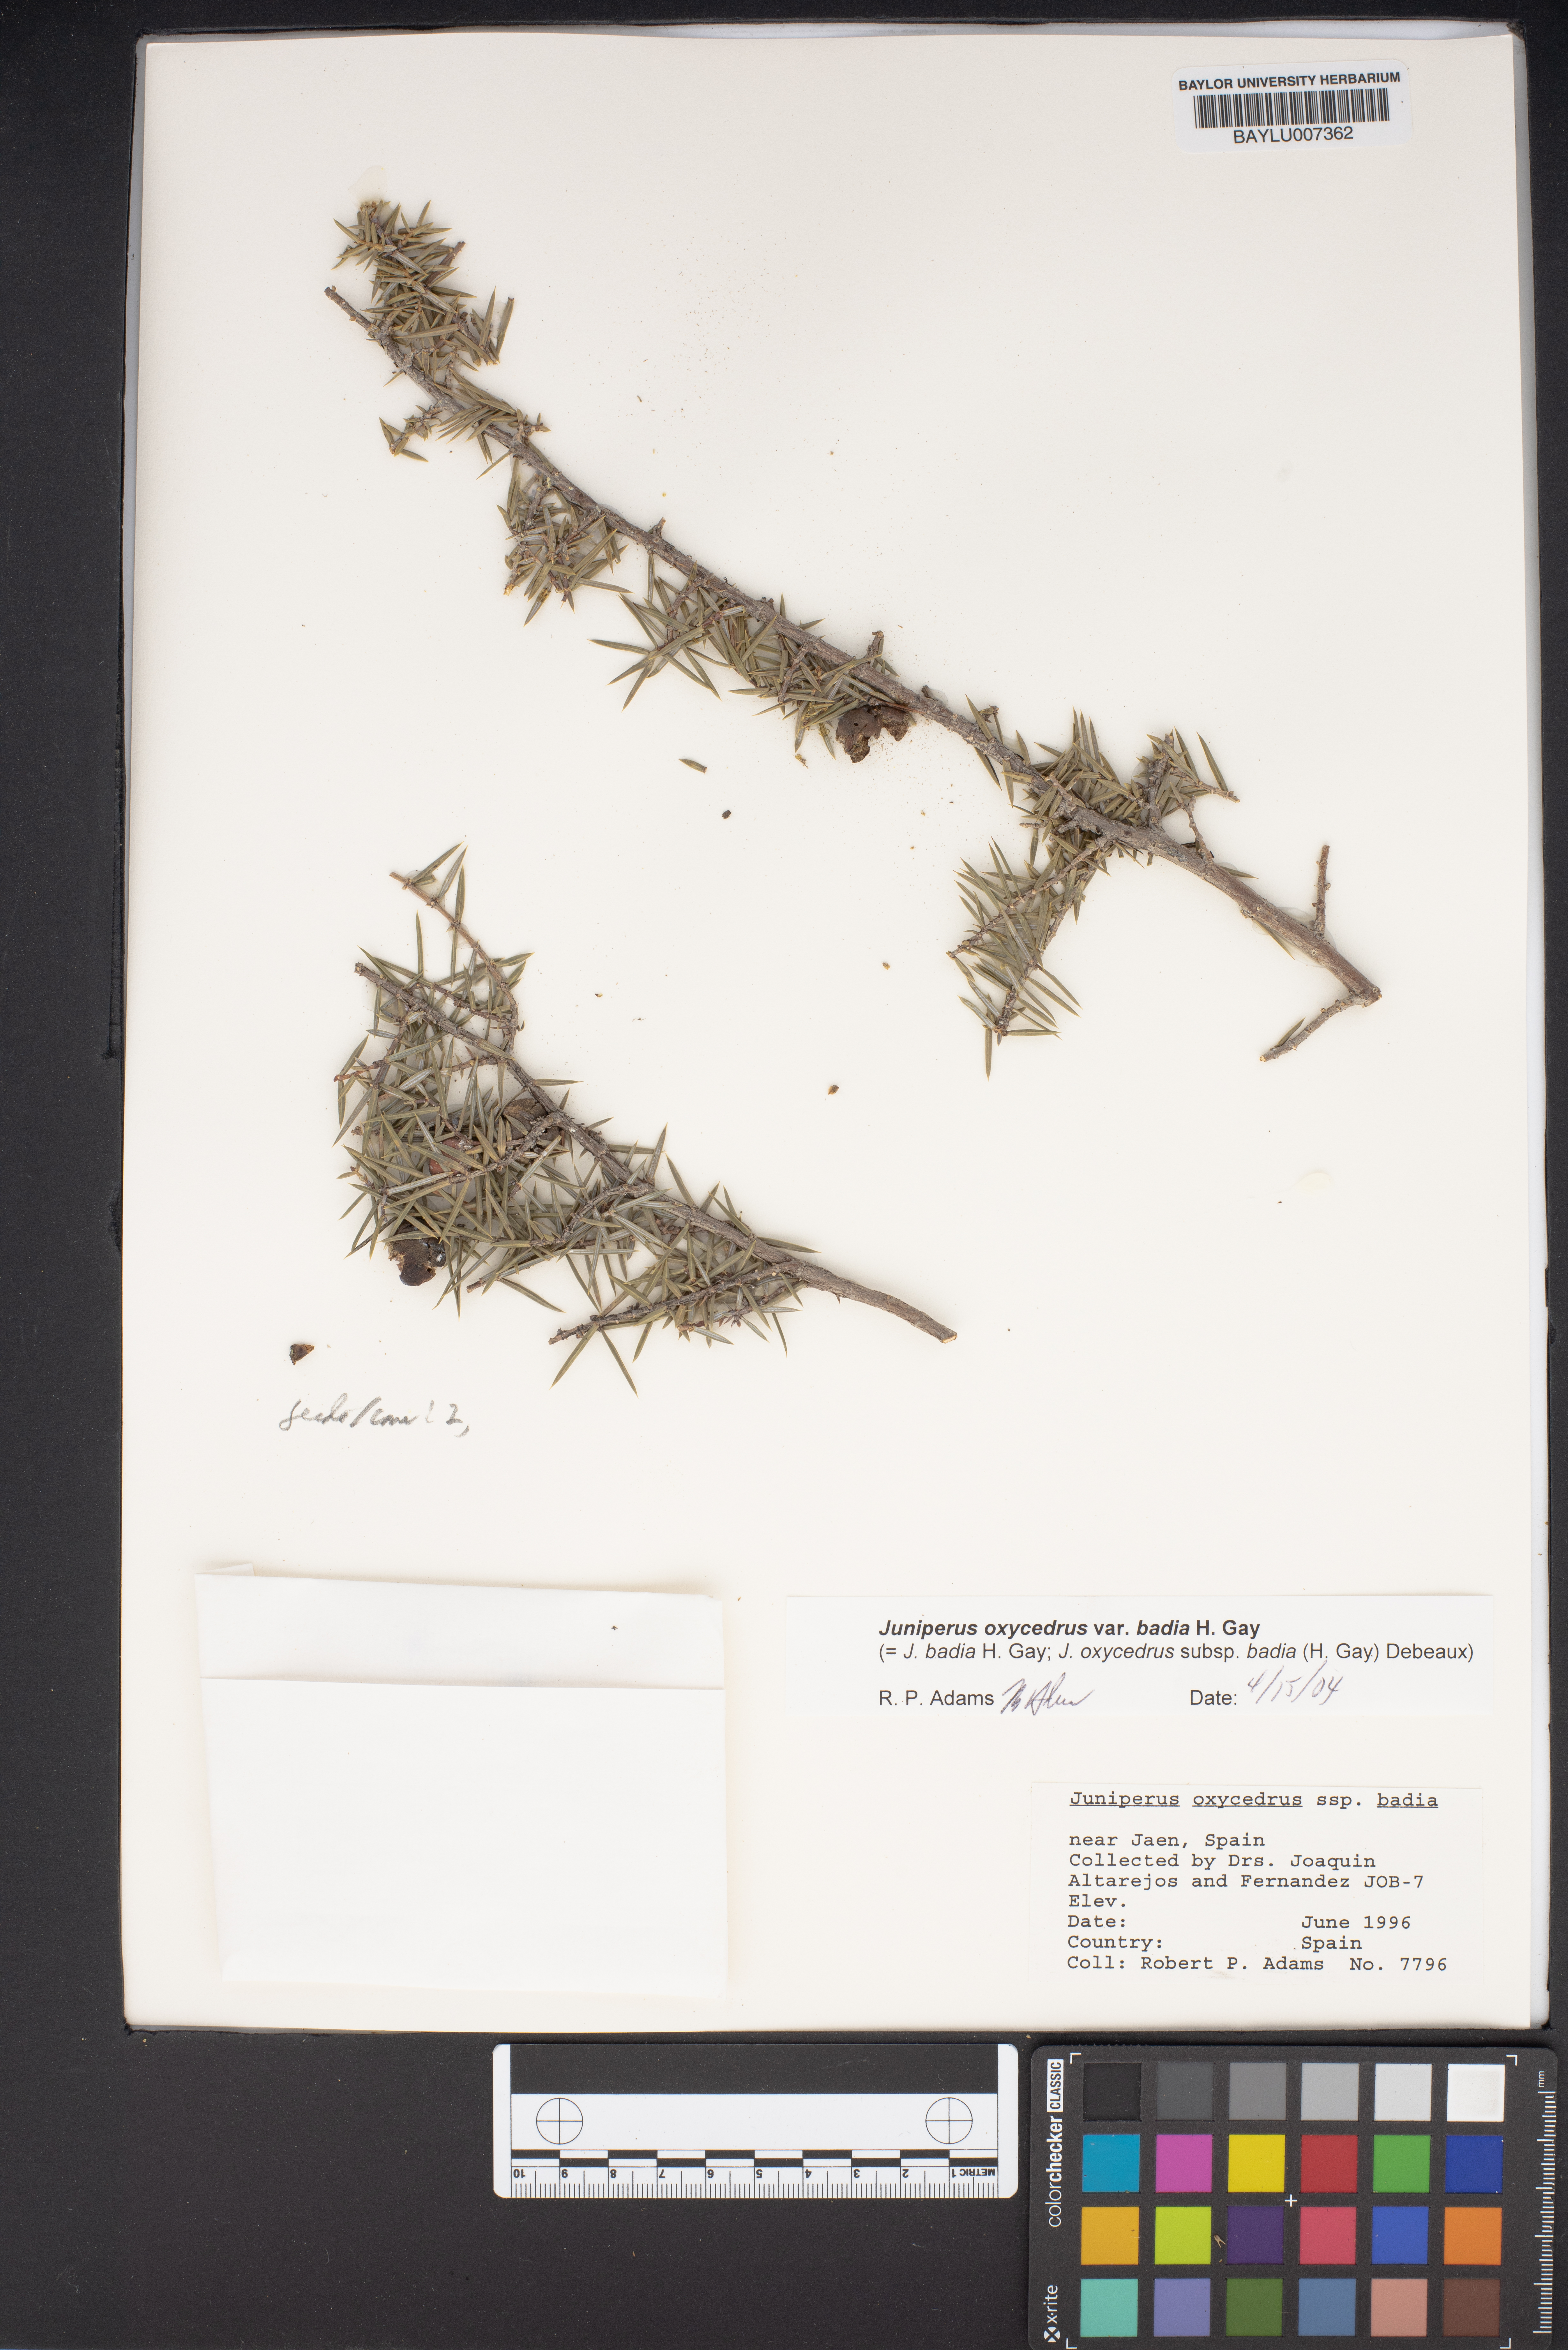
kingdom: Plantae
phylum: Tracheophyta
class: Pinopsida
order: Pinales
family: Cupressaceae
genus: Juniperus
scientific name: Juniperus oxycedrus
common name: Prickly juniper
